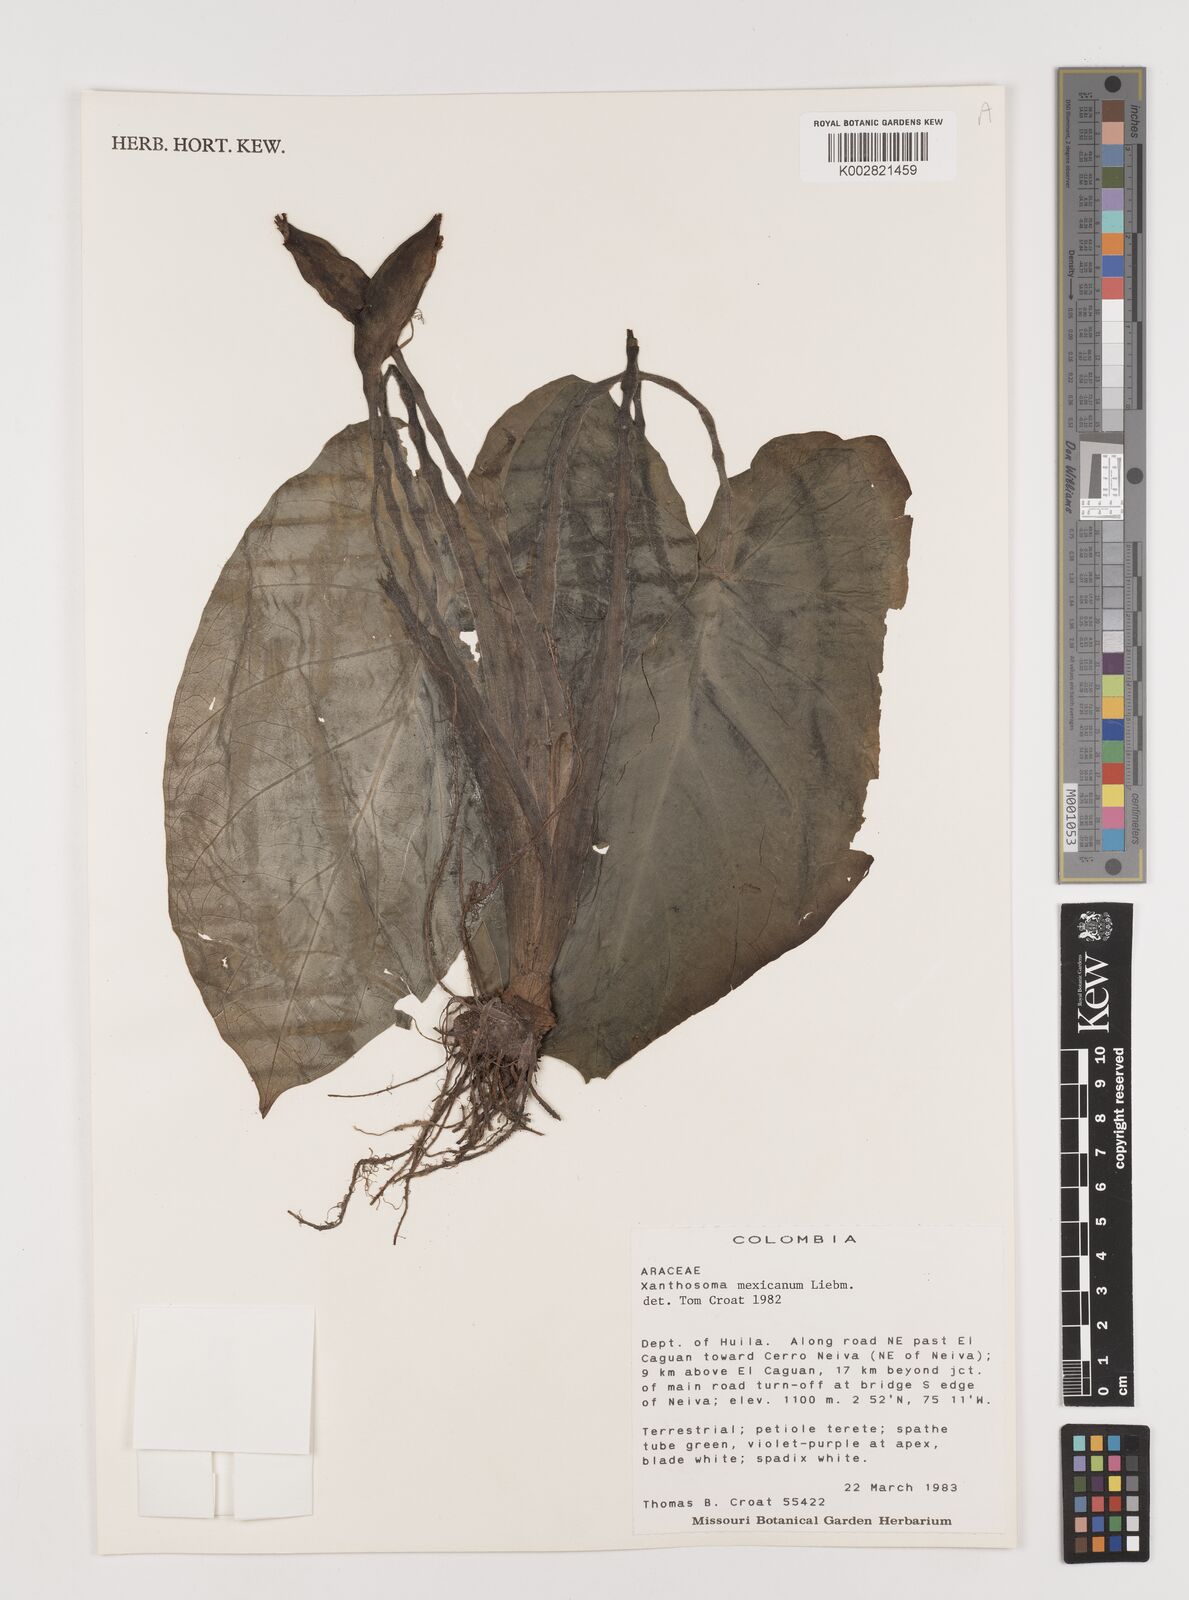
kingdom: Plantae
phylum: Tracheophyta
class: Liliopsida
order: Alismatales
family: Araceae
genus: Xanthosoma
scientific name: Xanthosoma mexicanum
